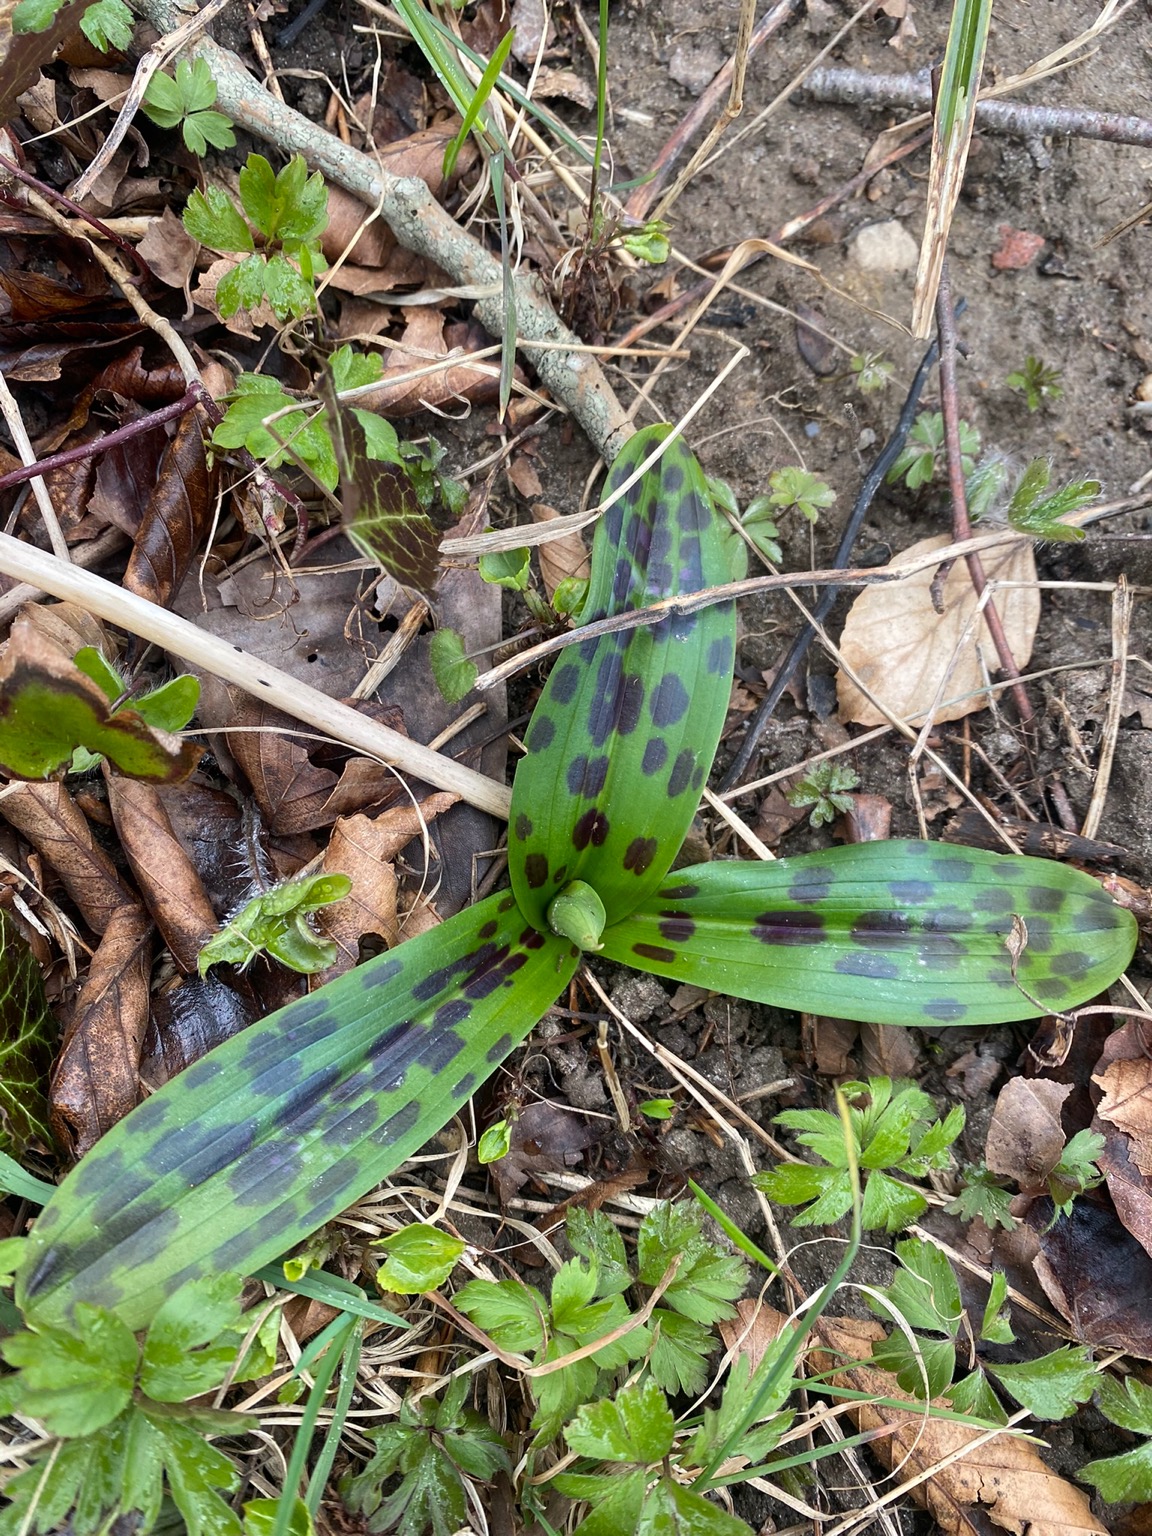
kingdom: Plantae
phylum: Tracheophyta
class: Liliopsida
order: Asparagales
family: Orchidaceae
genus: Orchis
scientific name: Orchis mascula
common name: Tyndakset gøgeurt
